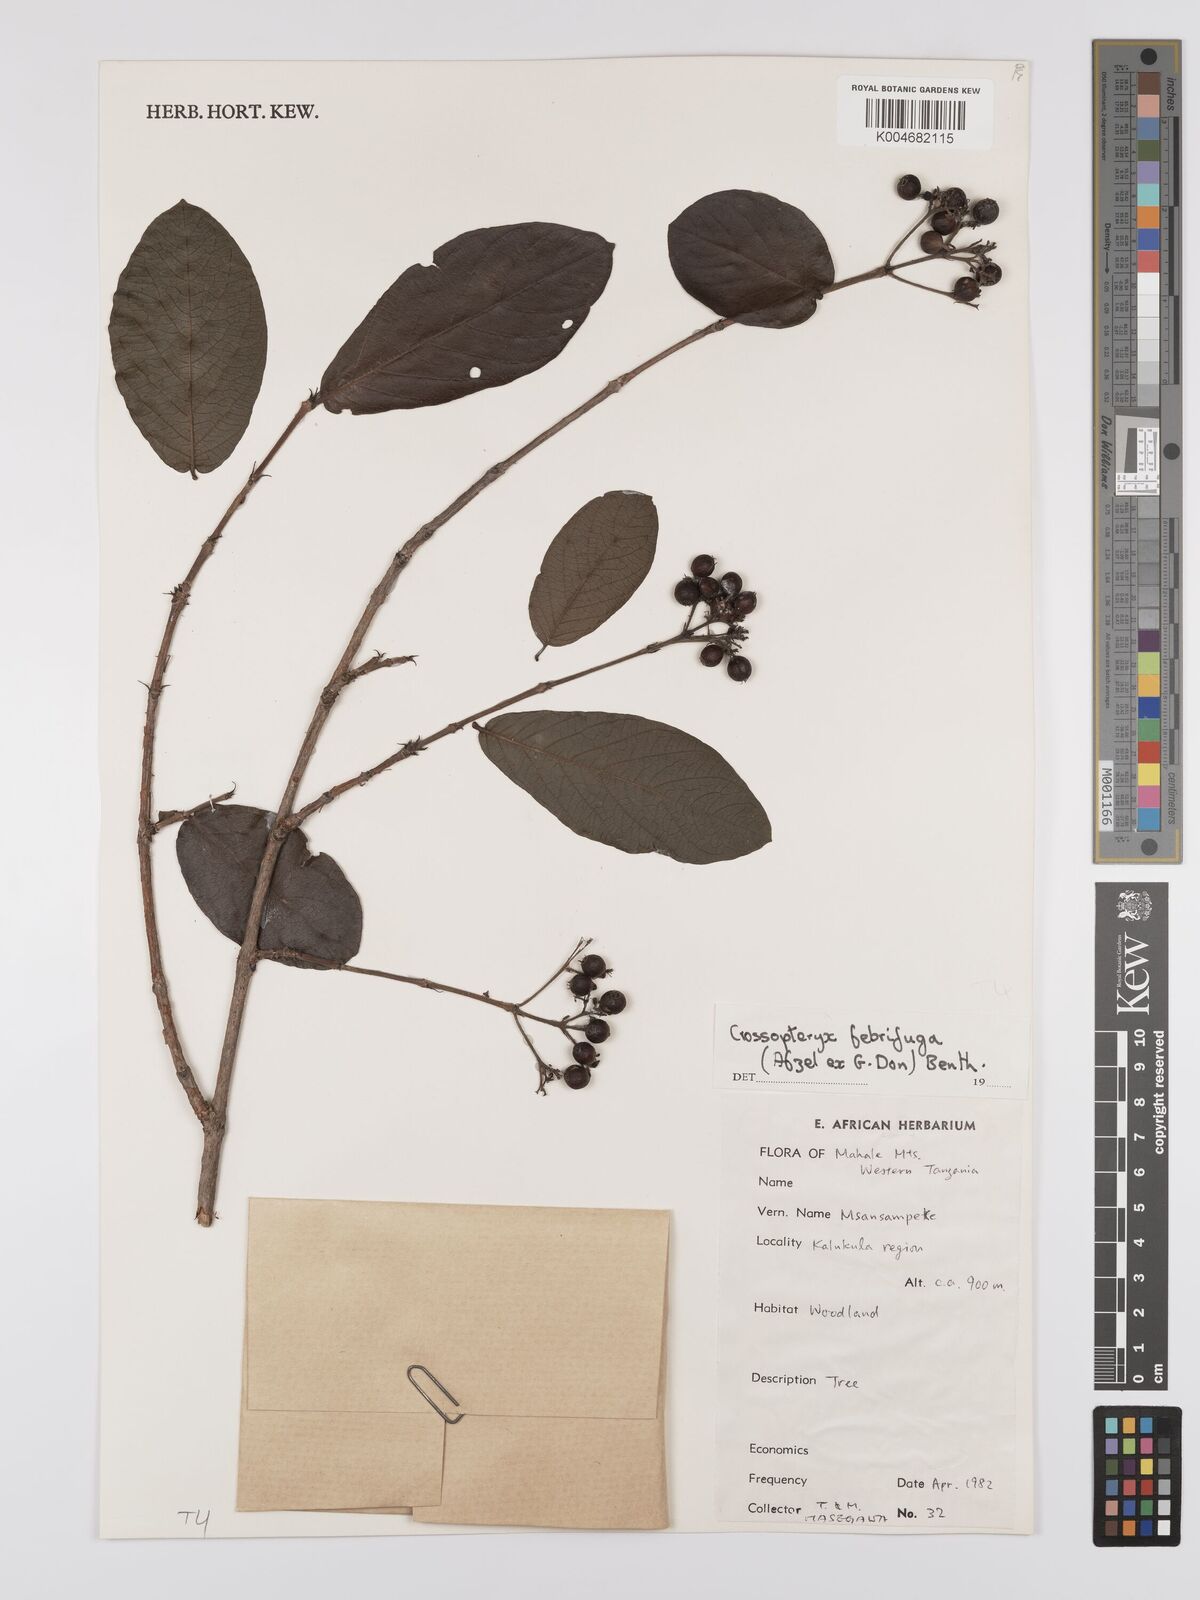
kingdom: Plantae
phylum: Tracheophyta
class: Magnoliopsida
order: Gentianales
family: Rubiaceae
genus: Crossopteryx
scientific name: Crossopteryx febrifuga
